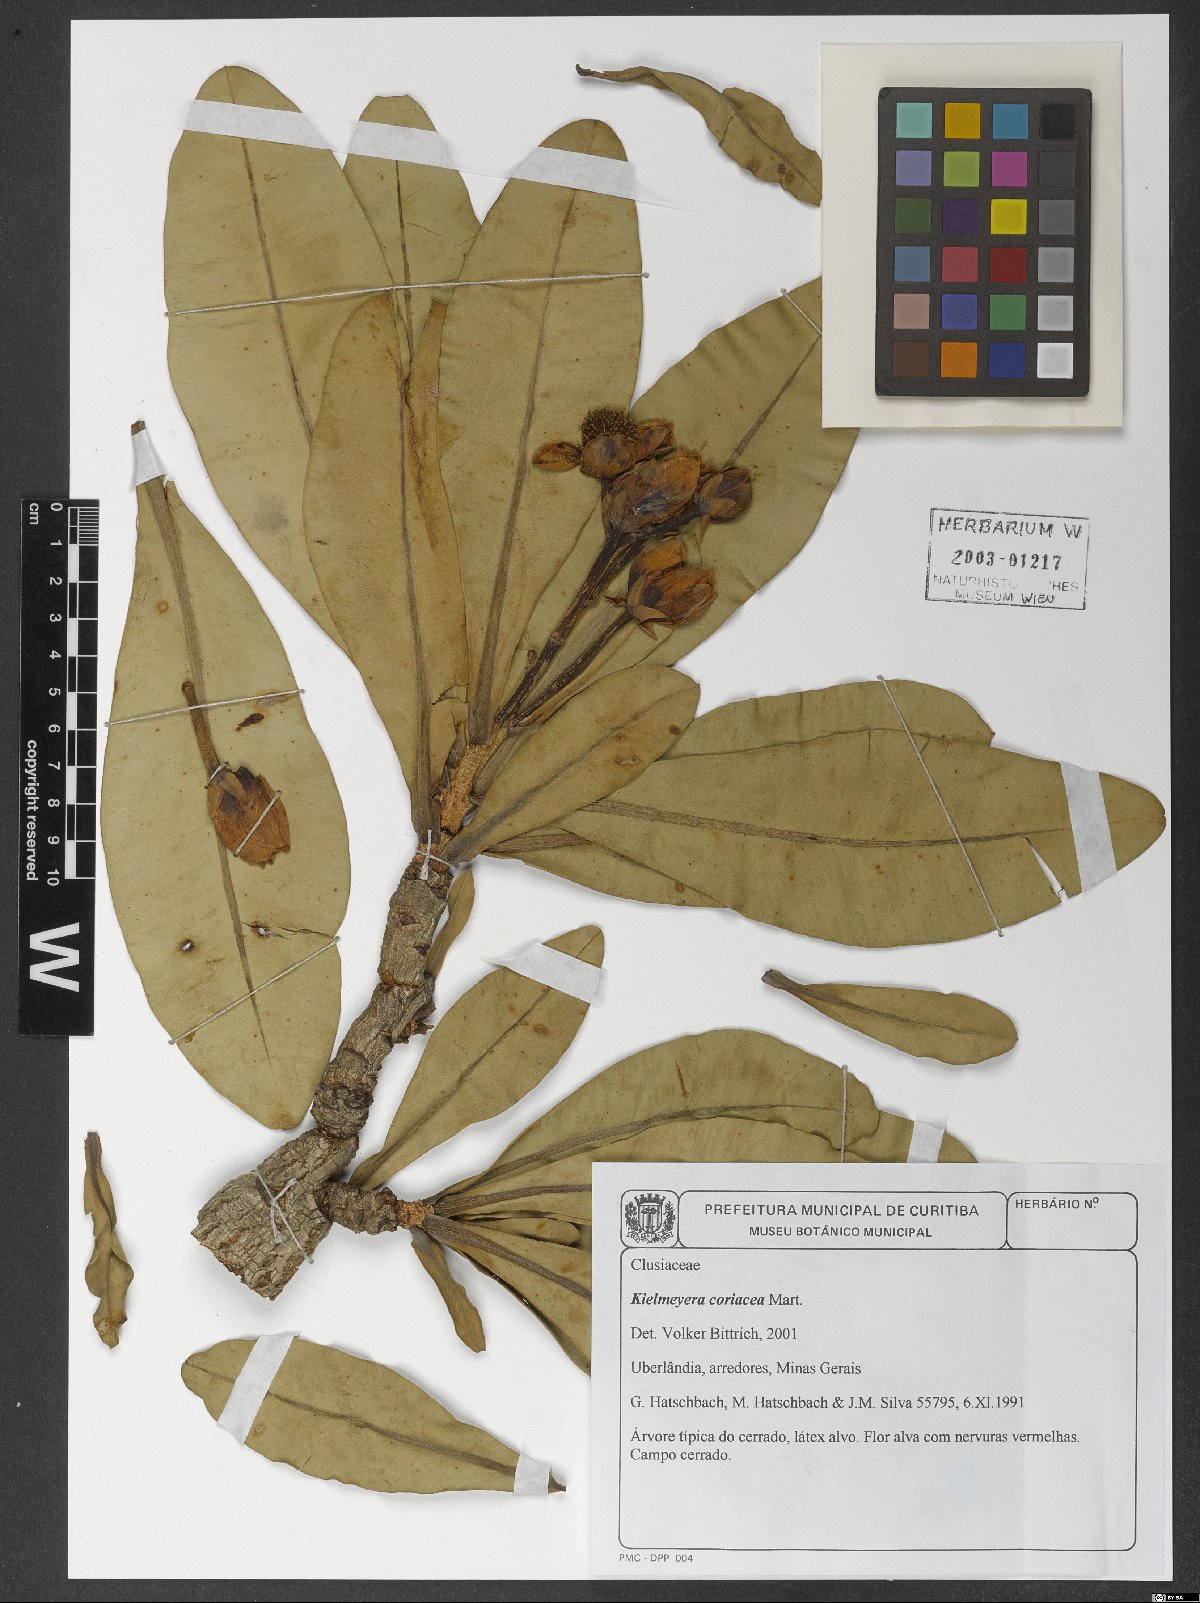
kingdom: Plantae
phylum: Tracheophyta
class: Magnoliopsida
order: Malpighiales
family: Calophyllaceae
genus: Kielmeyera
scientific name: Kielmeyera coriacea
